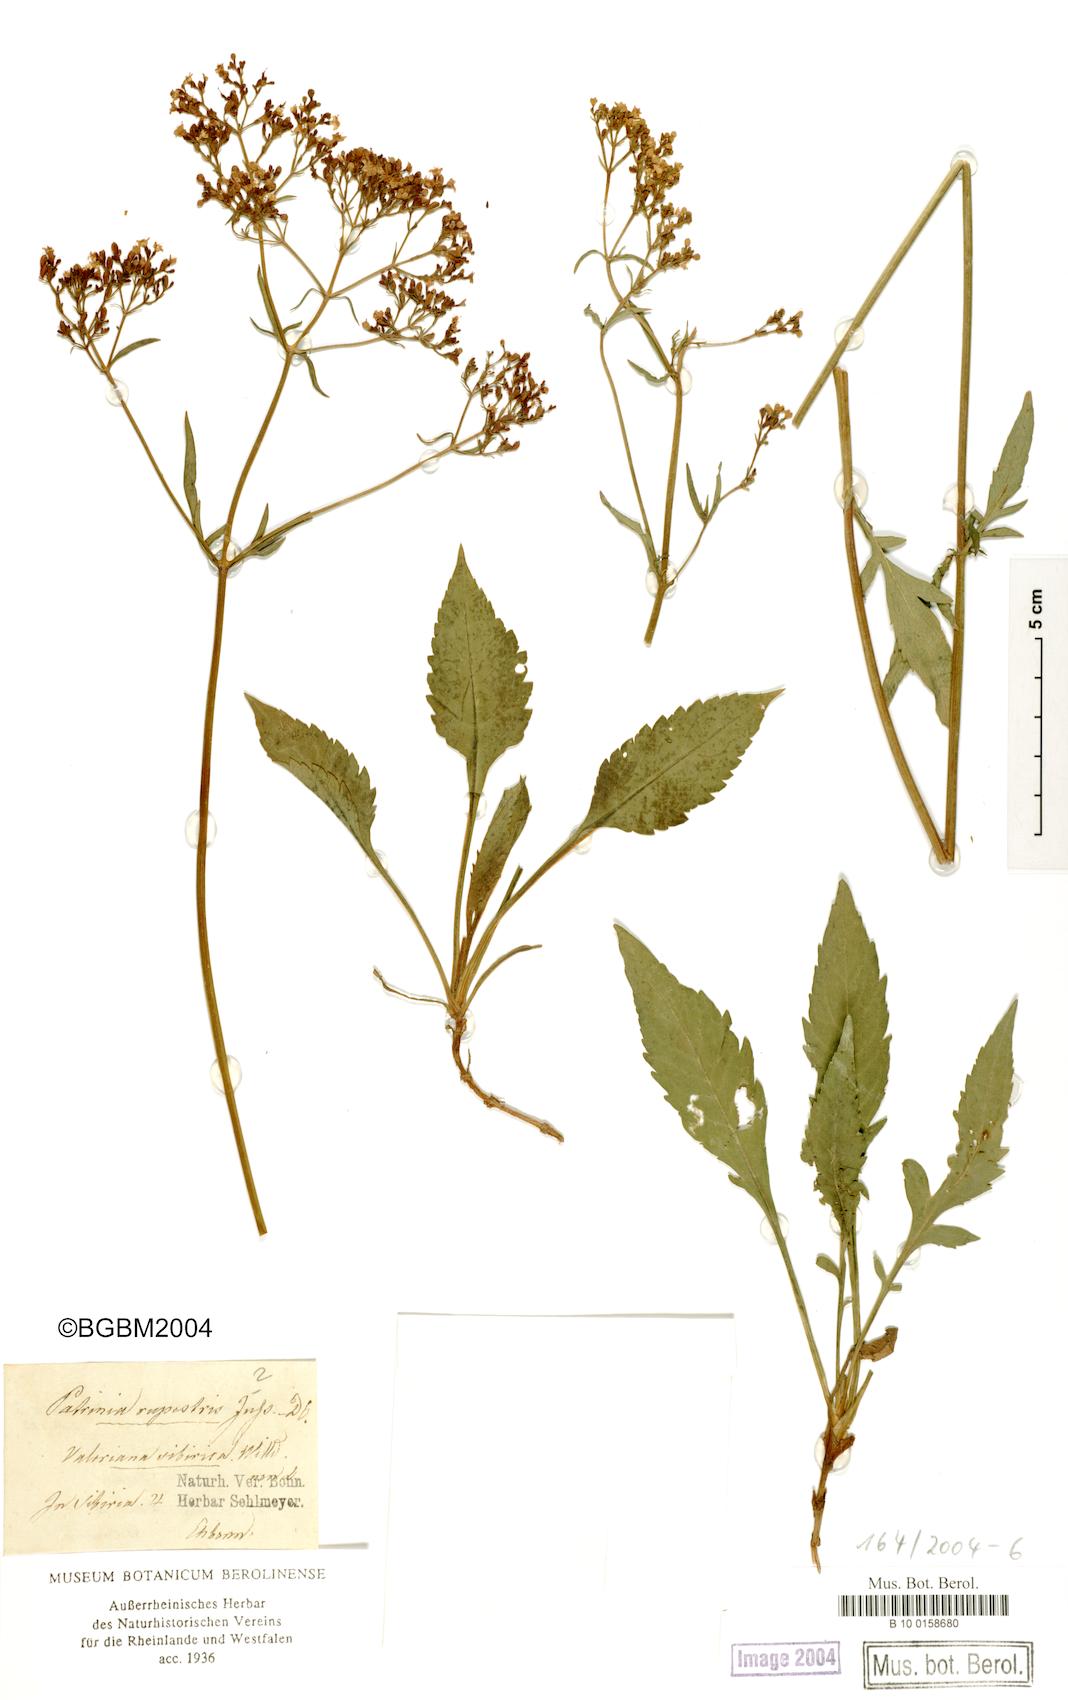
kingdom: Plantae
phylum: Tracheophyta
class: Magnoliopsida
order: Dipsacales
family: Caprifoliaceae
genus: Patrinia
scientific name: Patrinia rupestris
